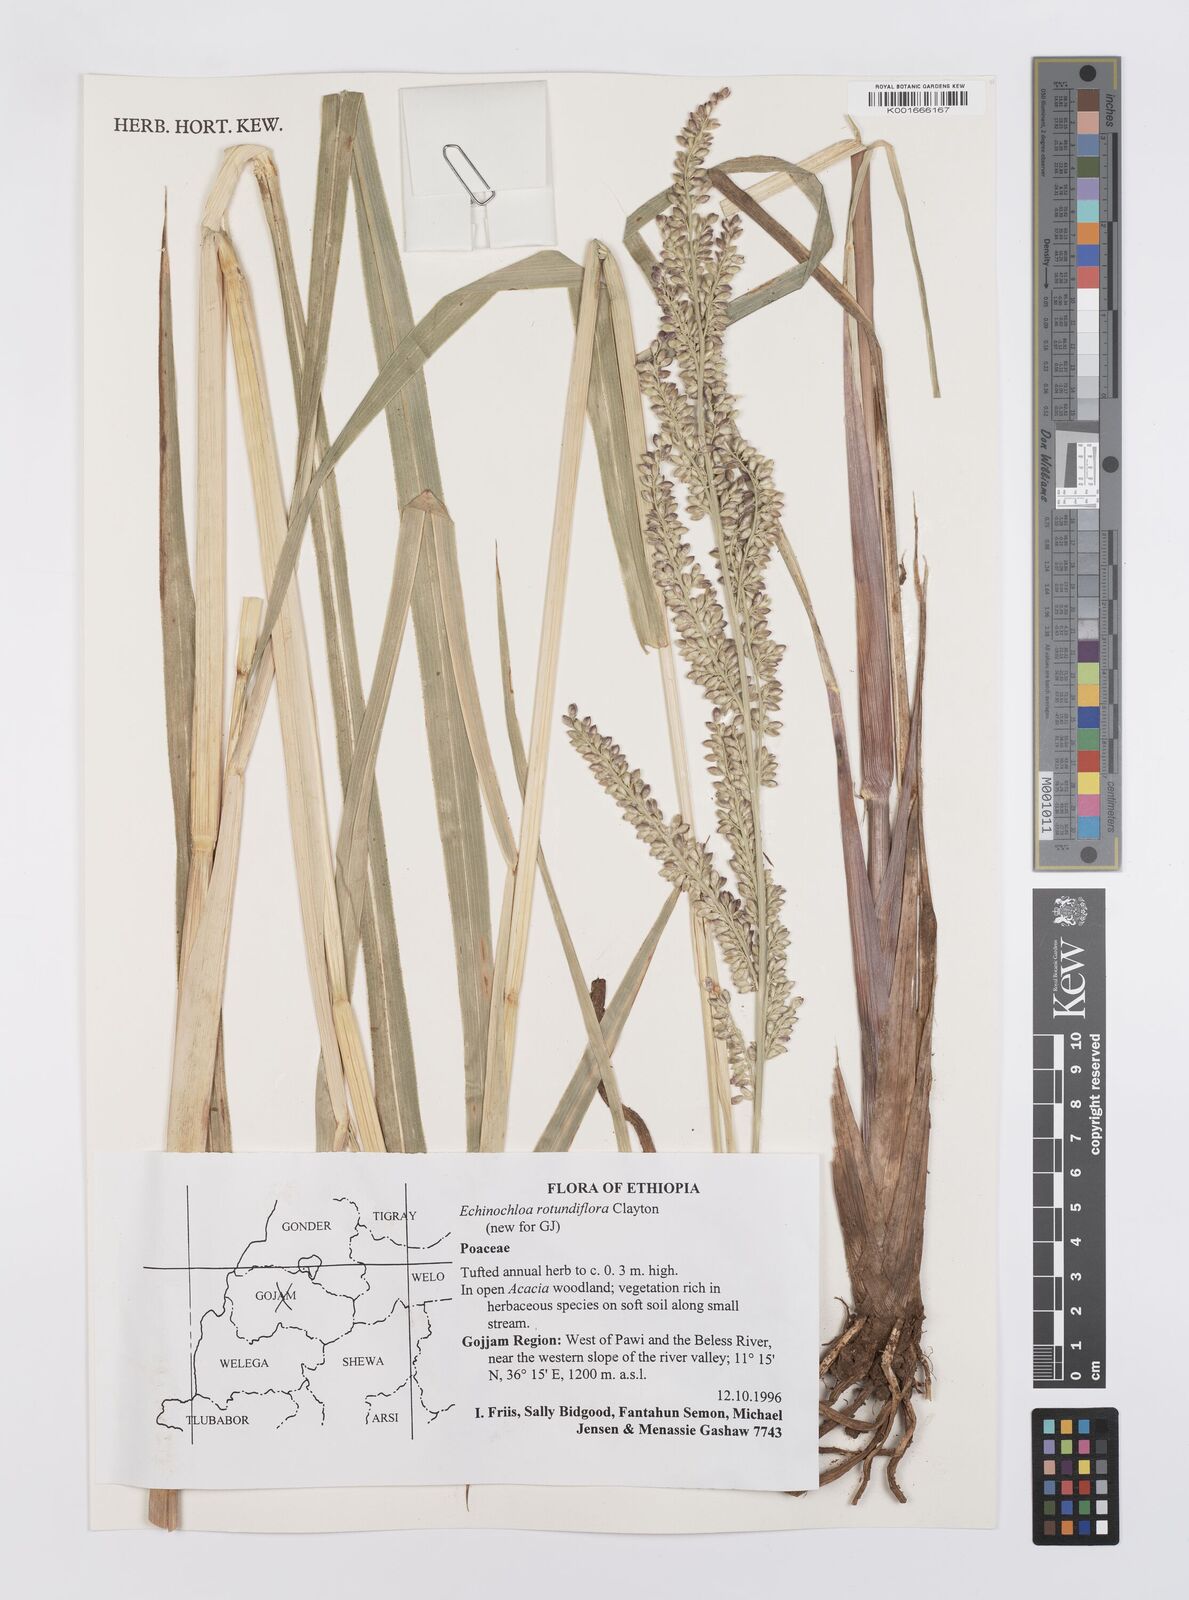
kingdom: Plantae
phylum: Tracheophyta
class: Liliopsida
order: Poales
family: Poaceae
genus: Echinochloa
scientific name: Echinochloa rotundiflora
